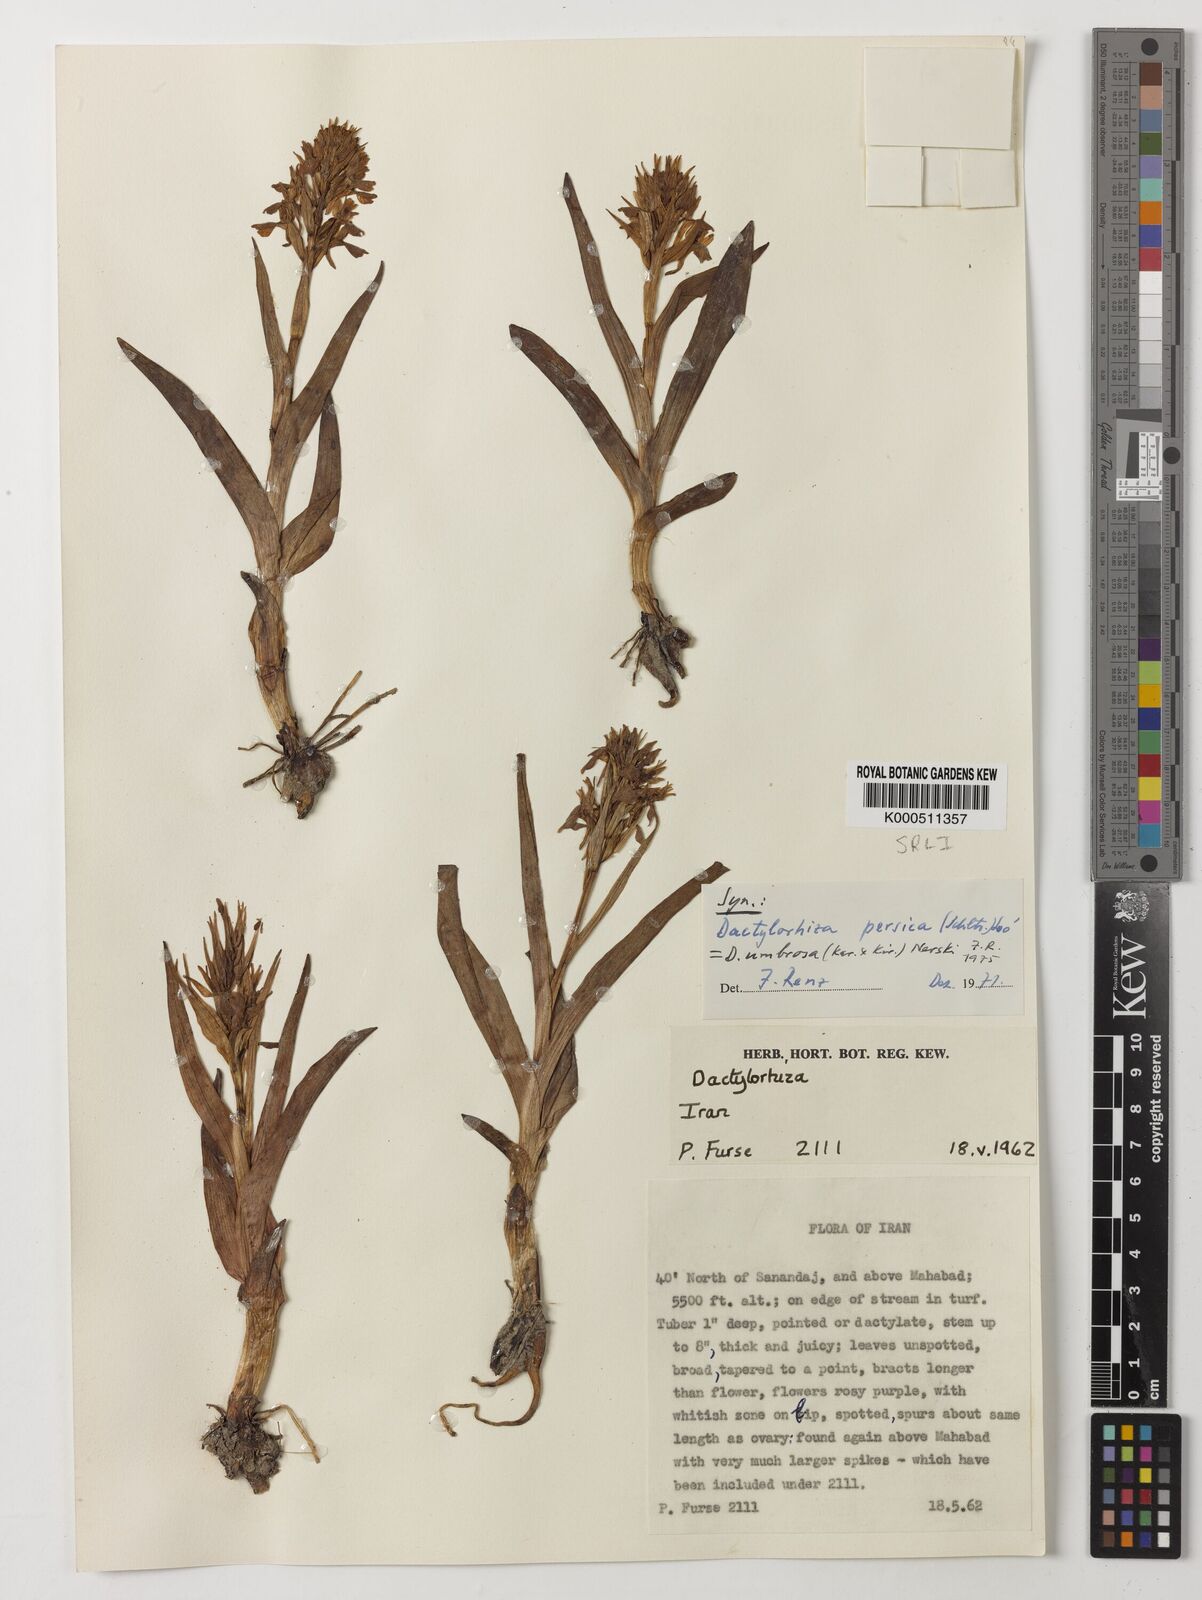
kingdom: Plantae
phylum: Tracheophyta
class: Liliopsida
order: Asparagales
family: Orchidaceae
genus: Dactylorhiza
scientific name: Dactylorhiza
